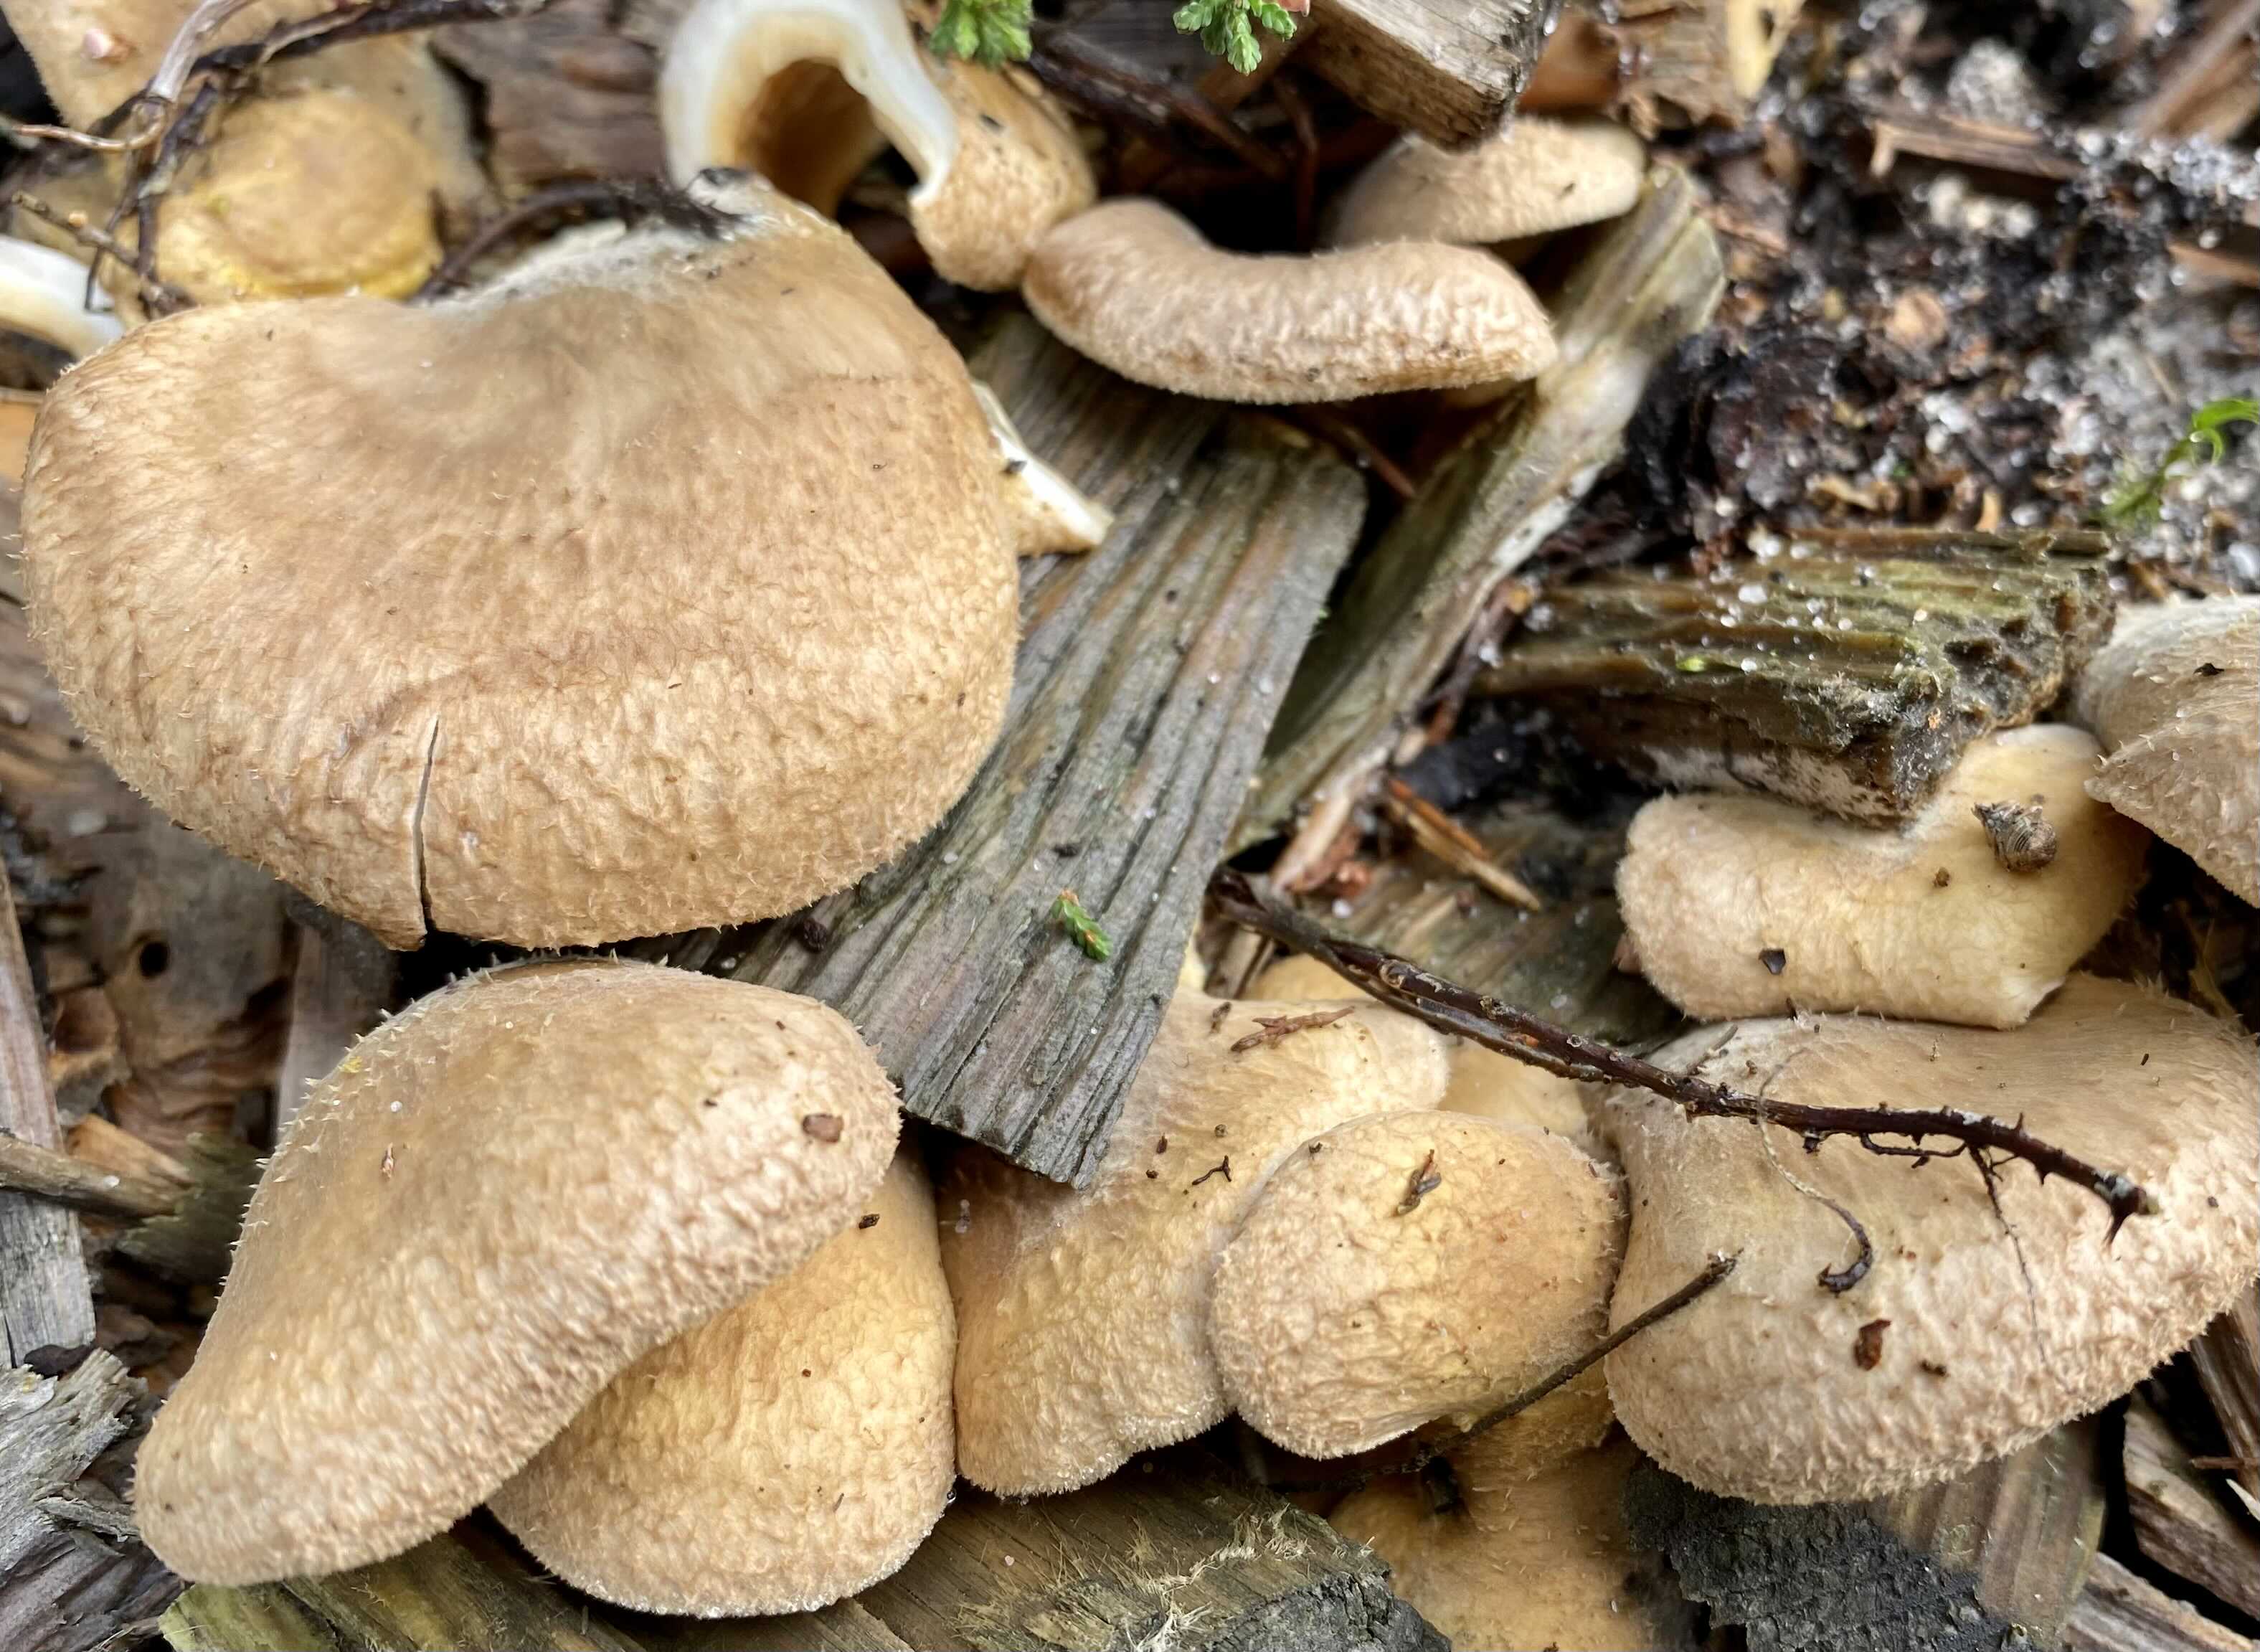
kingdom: Fungi
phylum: Basidiomycota
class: Agaricomycetes
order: Boletales
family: Tapinellaceae
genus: Tapinella
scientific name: Tapinella panuoides
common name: tømmer-viftesvamp
